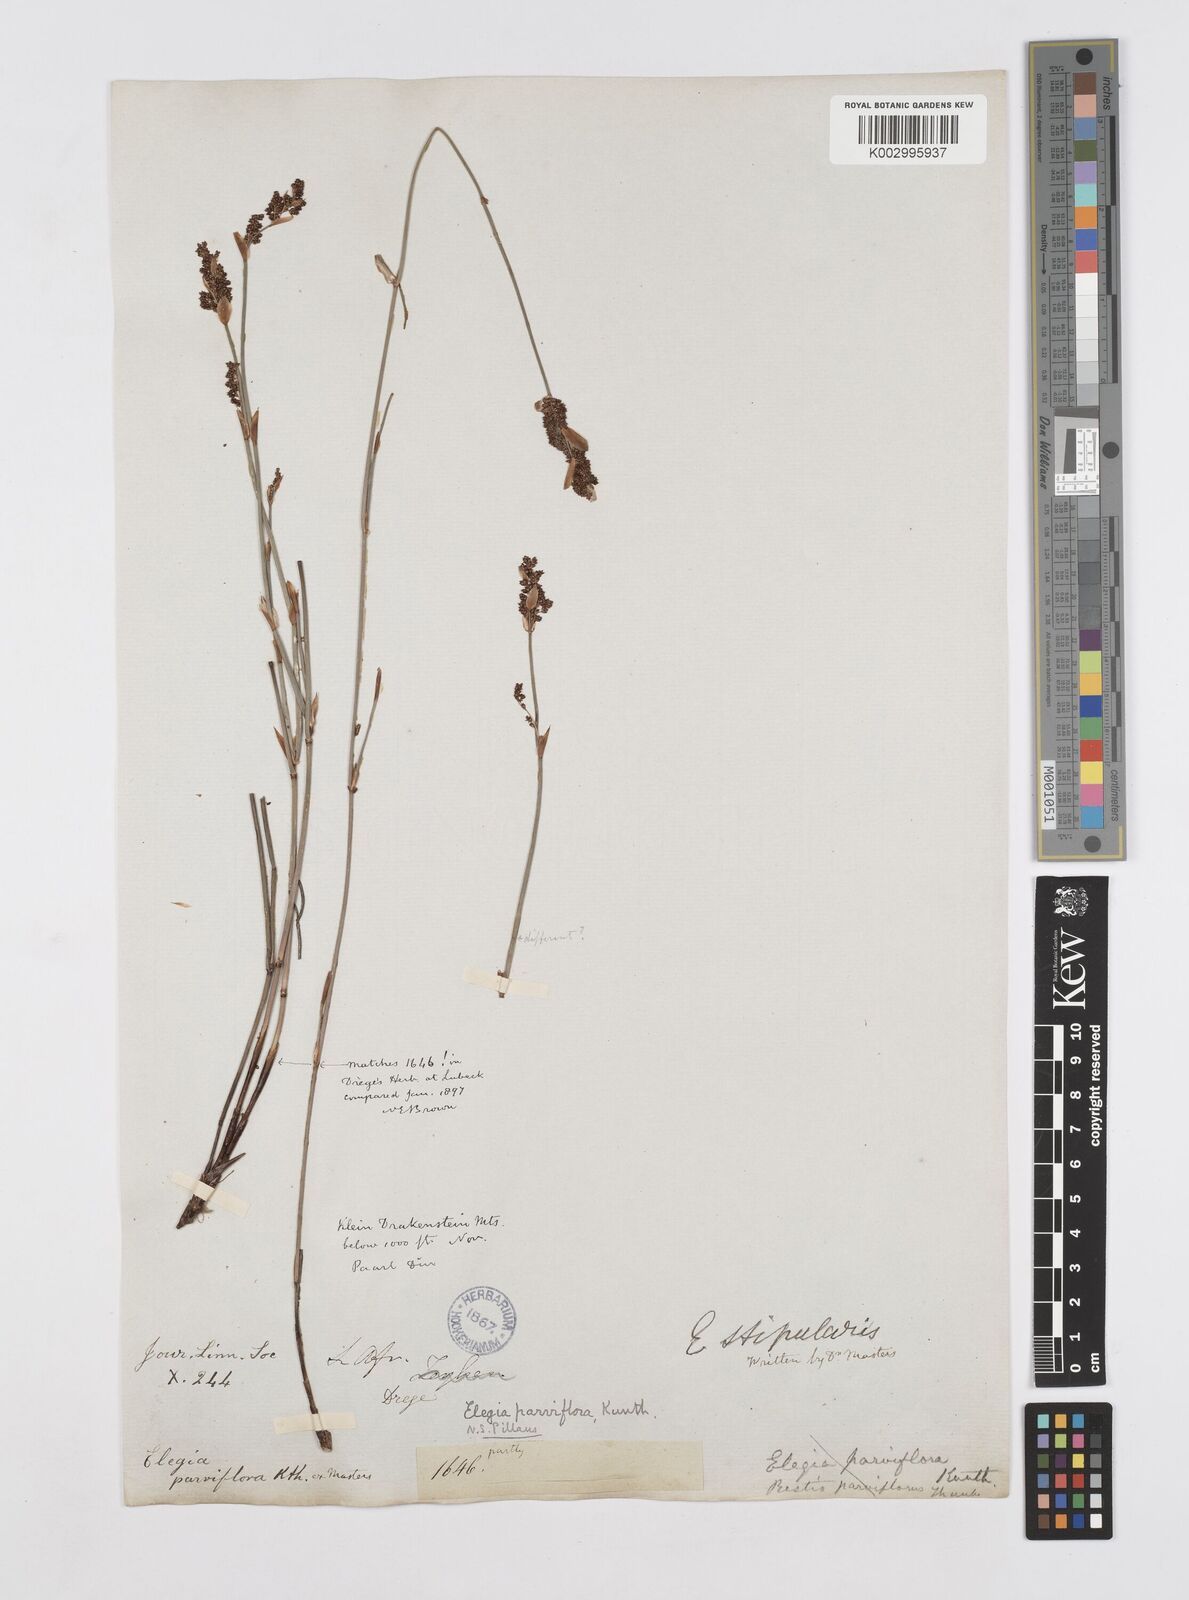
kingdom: Plantae
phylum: Tracheophyta
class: Liliopsida
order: Poales
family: Restionaceae
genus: Cannomois
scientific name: Cannomois parviflora
